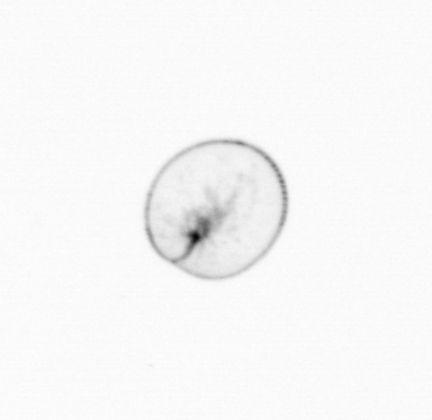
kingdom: Chromista
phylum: Myzozoa
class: Dinophyceae
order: Noctilucales
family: Noctilucaceae
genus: Noctiluca
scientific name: Noctiluca scintillans
